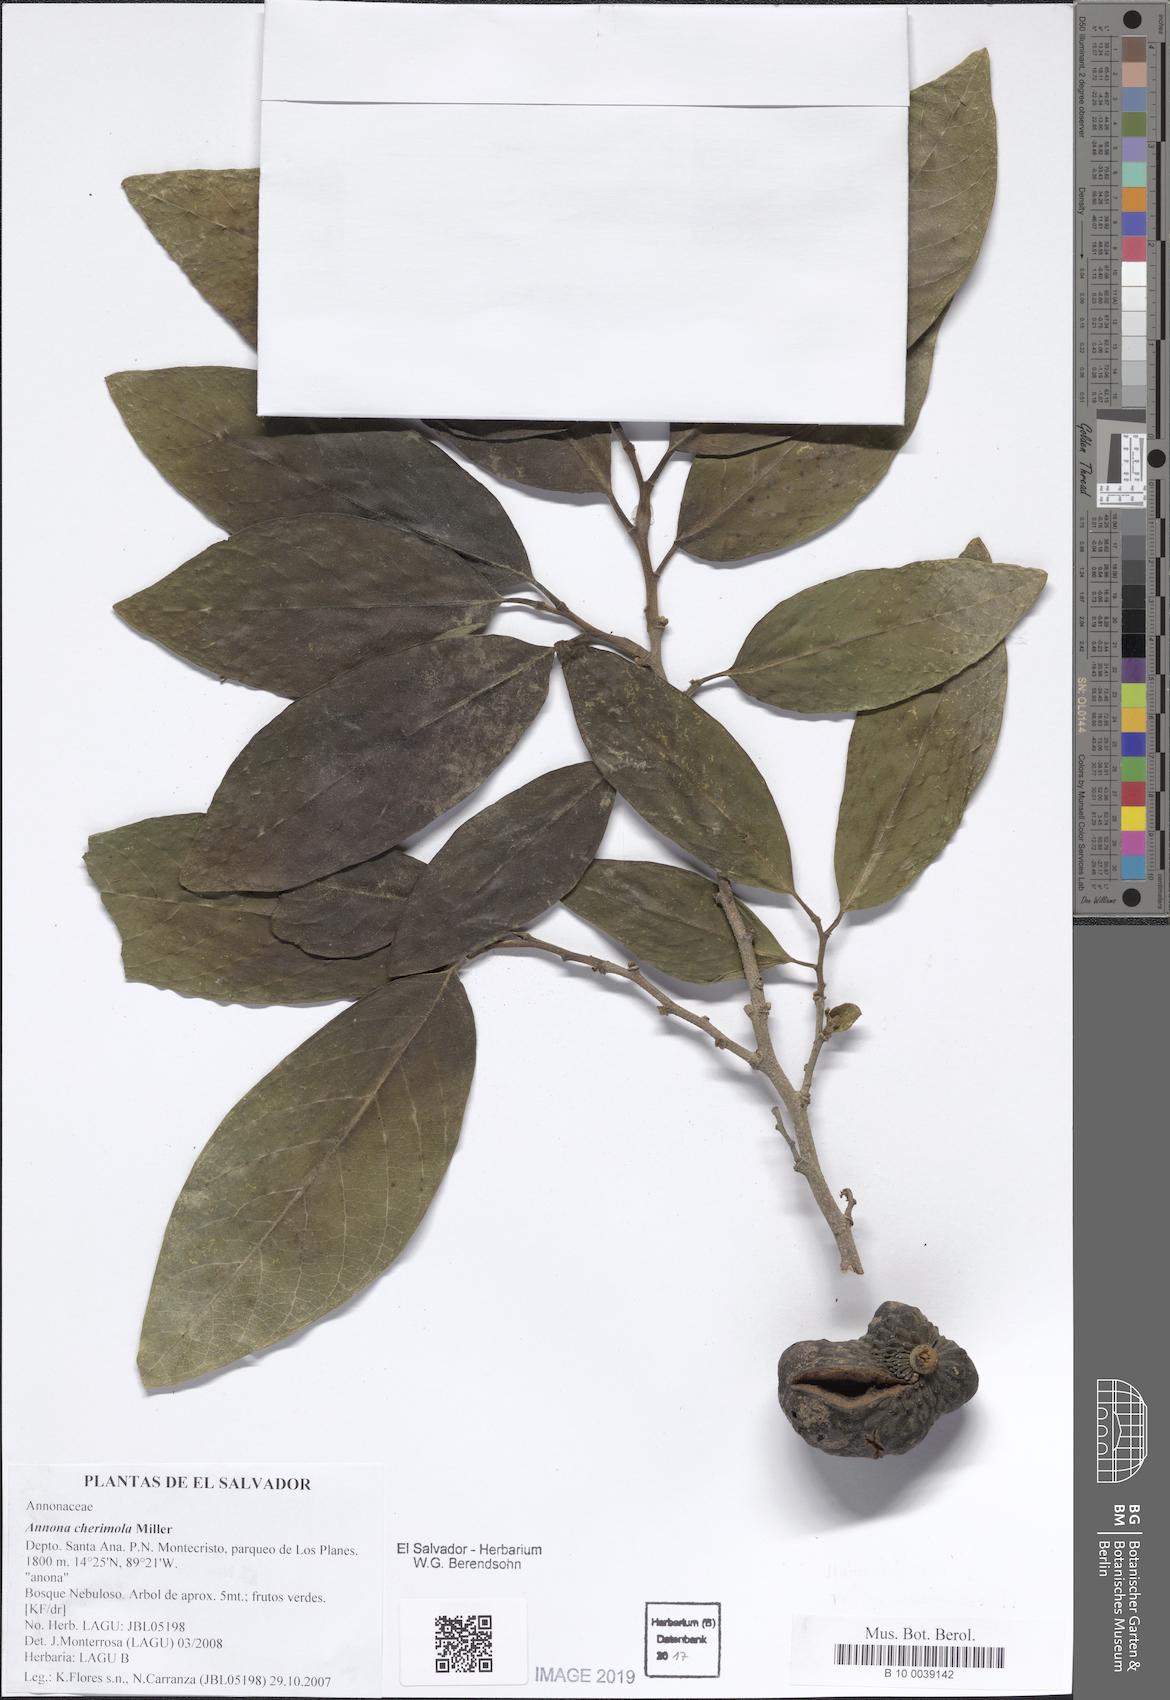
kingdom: Plantae
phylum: Tracheophyta
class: Magnoliopsida
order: Magnoliales
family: Annonaceae
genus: Annona
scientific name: Annona cherimola
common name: Cherimoya
